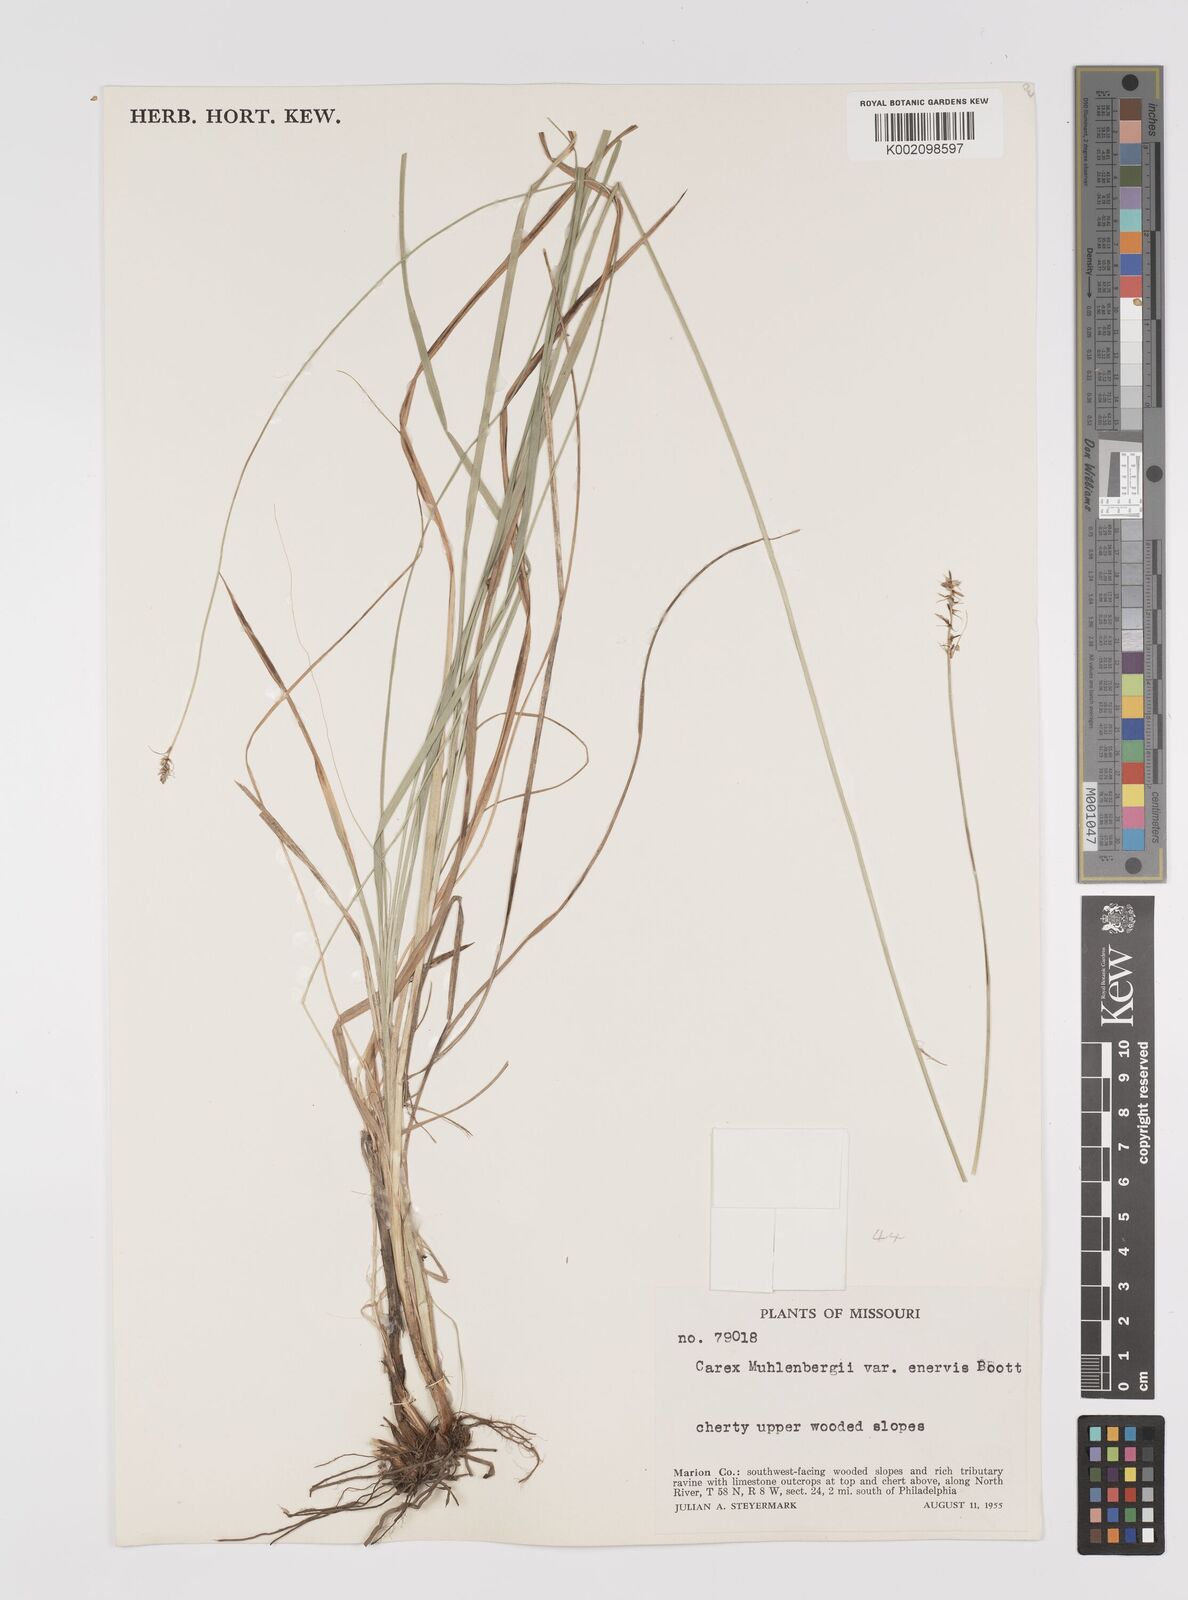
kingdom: Plantae
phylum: Tracheophyta
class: Liliopsida
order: Poales
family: Cyperaceae
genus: Carex
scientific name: Carex vulpinoidea
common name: American fox-sedge
